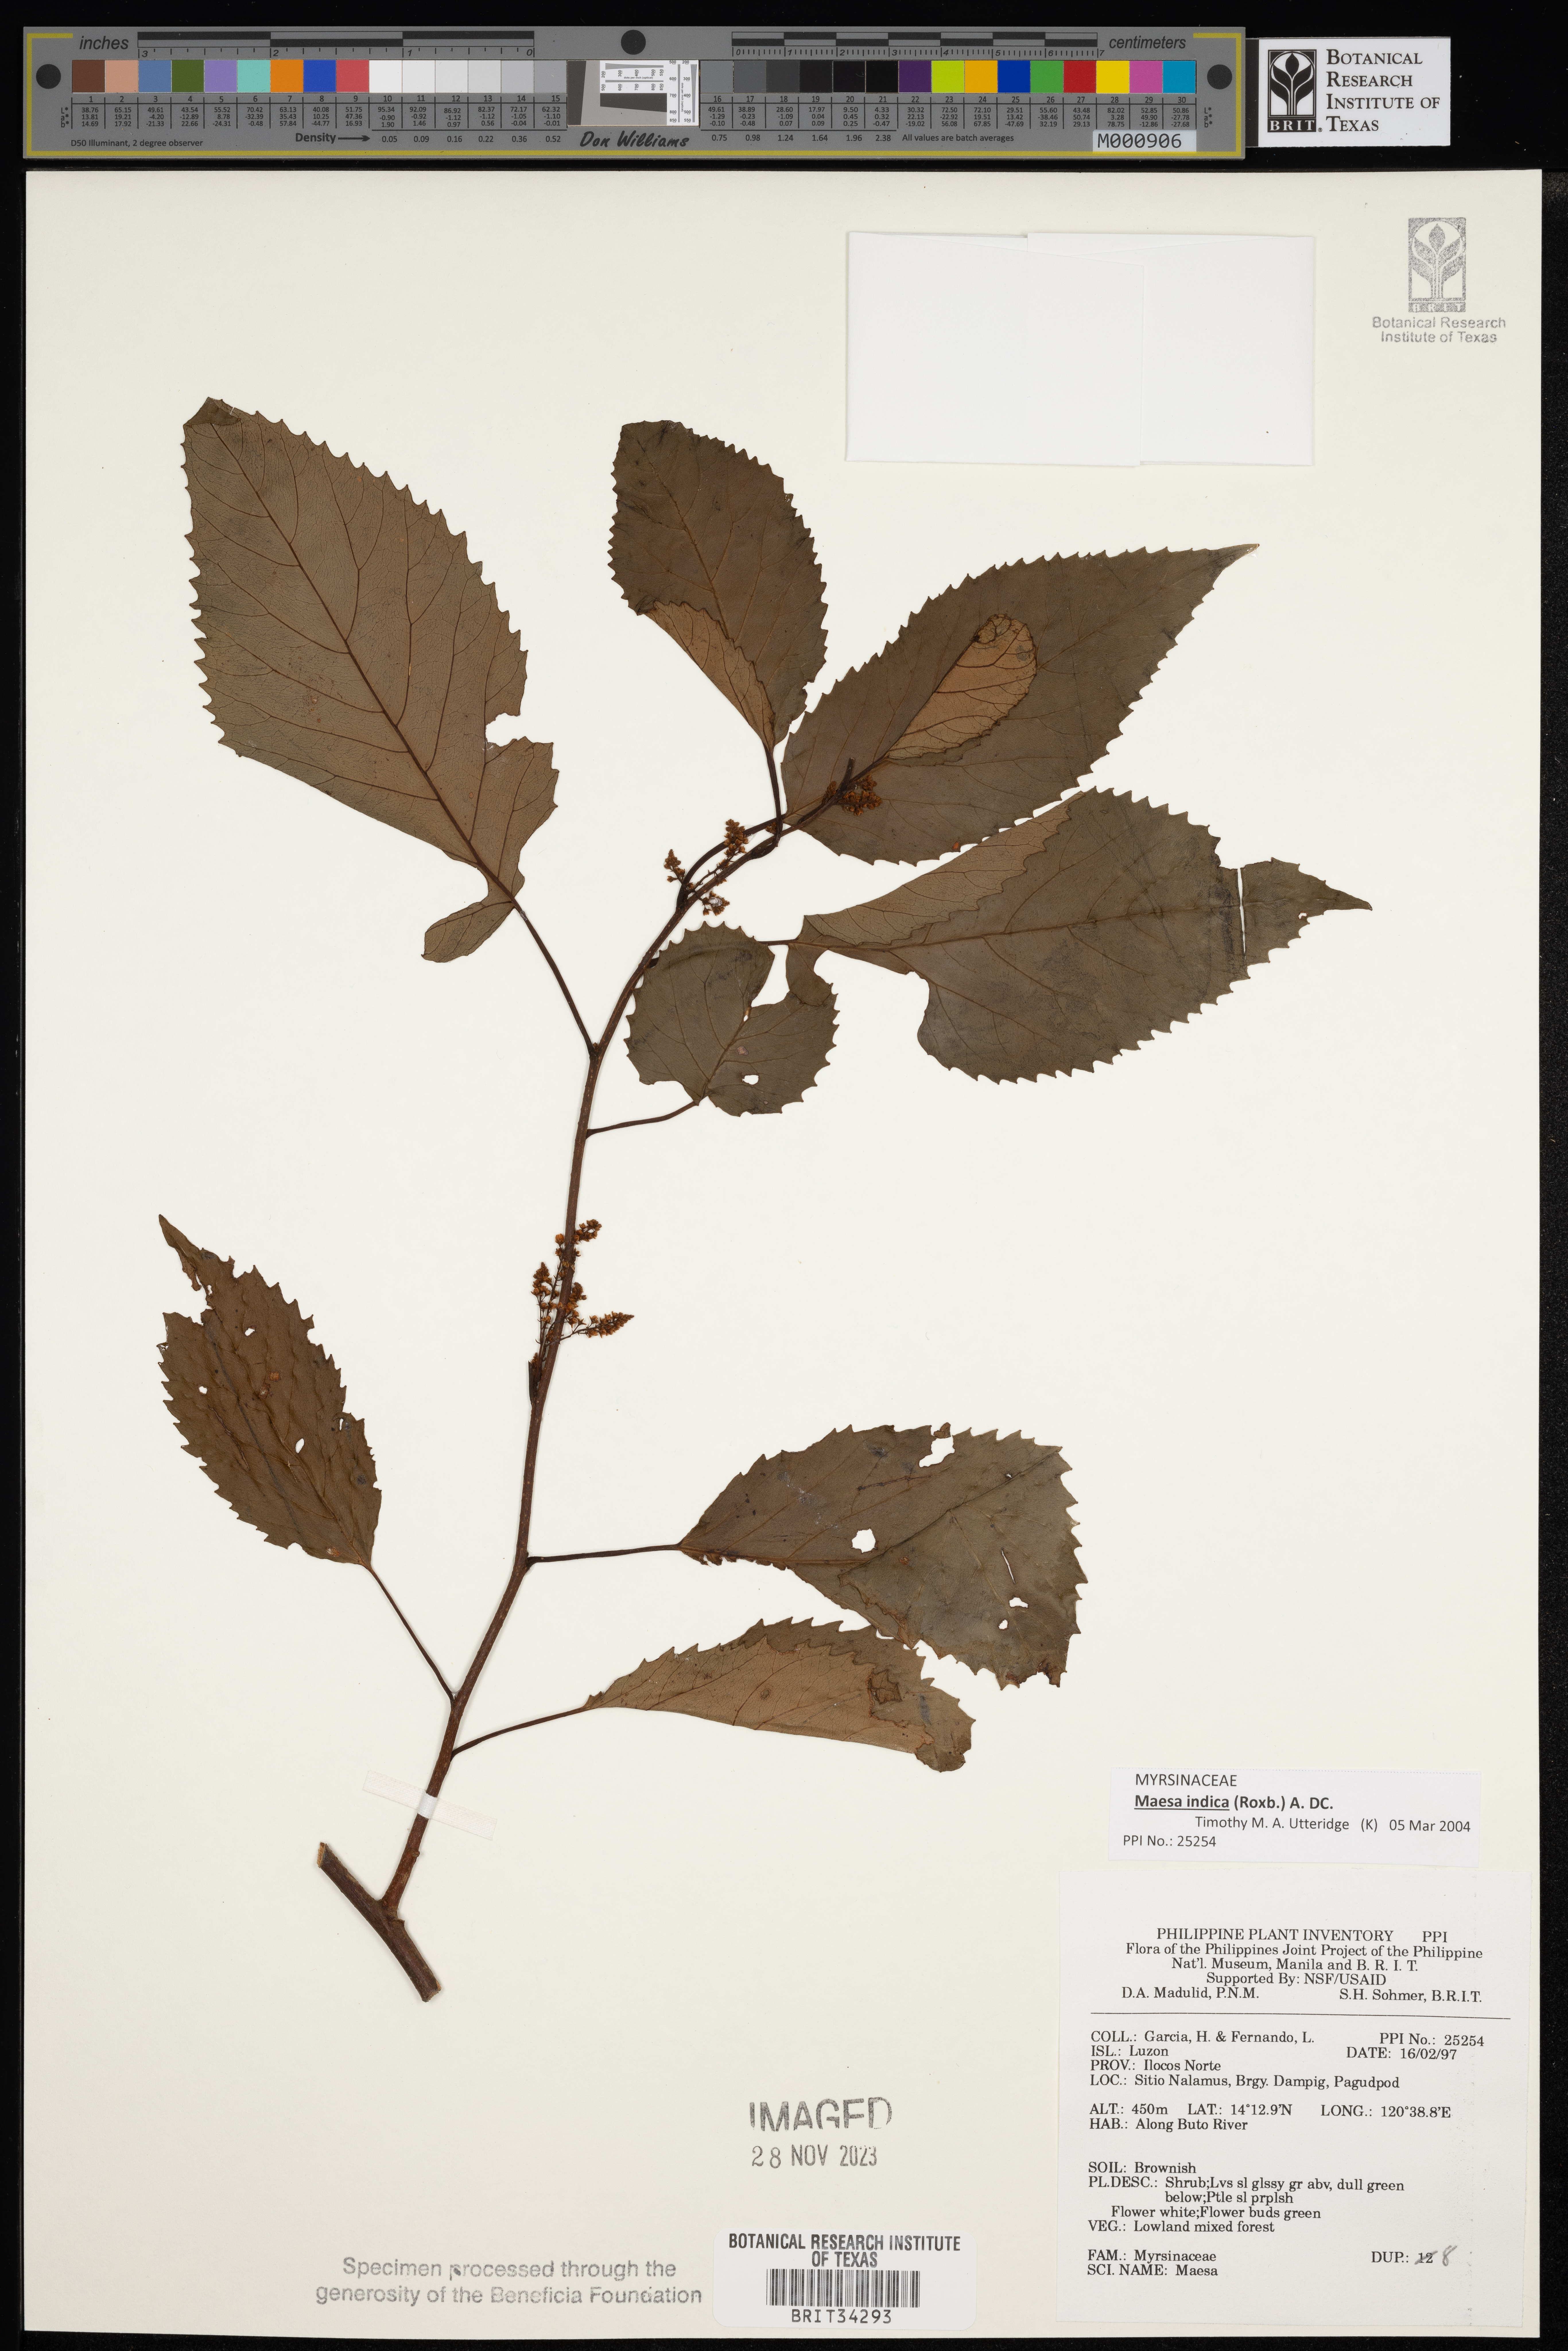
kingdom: Plantae
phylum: Tracheophyta
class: Magnoliopsida
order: Ericales
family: Primulaceae
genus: Maesa
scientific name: Maesa
